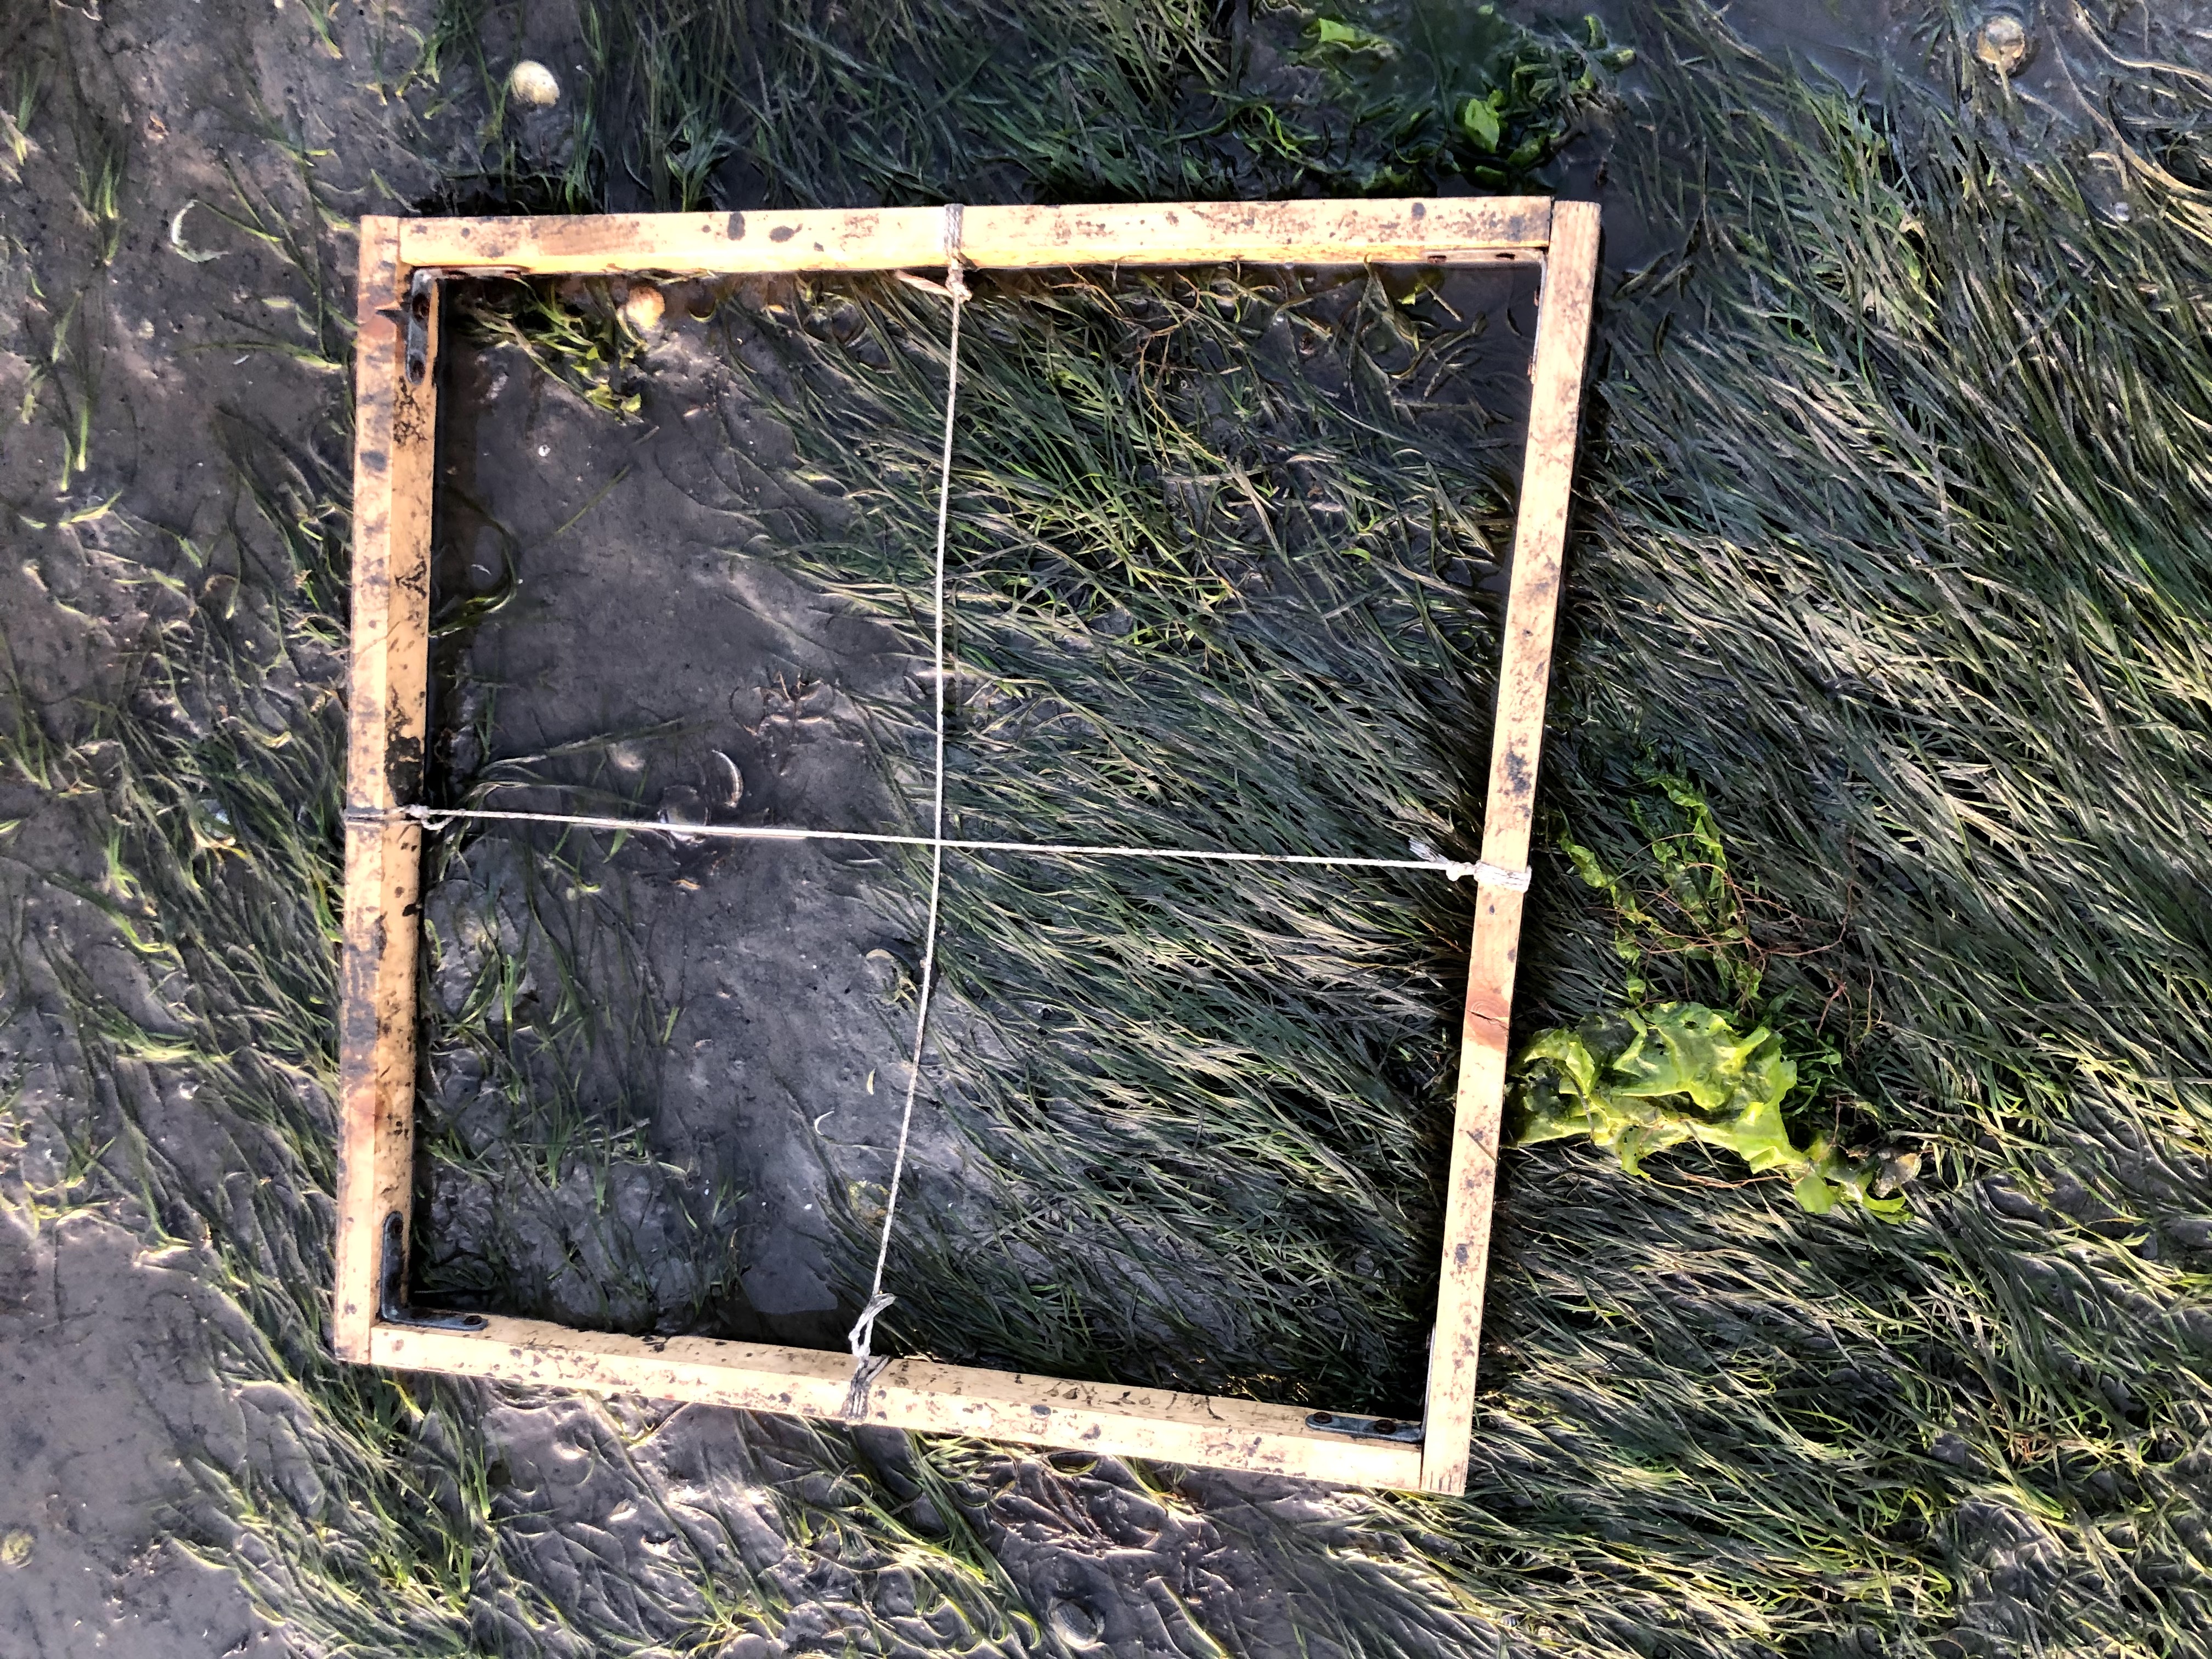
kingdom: Plantae
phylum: Tracheophyta
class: Liliopsida
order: Alismatales
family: Zosteraceae
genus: Zostera
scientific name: Zostera noltii
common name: Dwarf eelgrass
